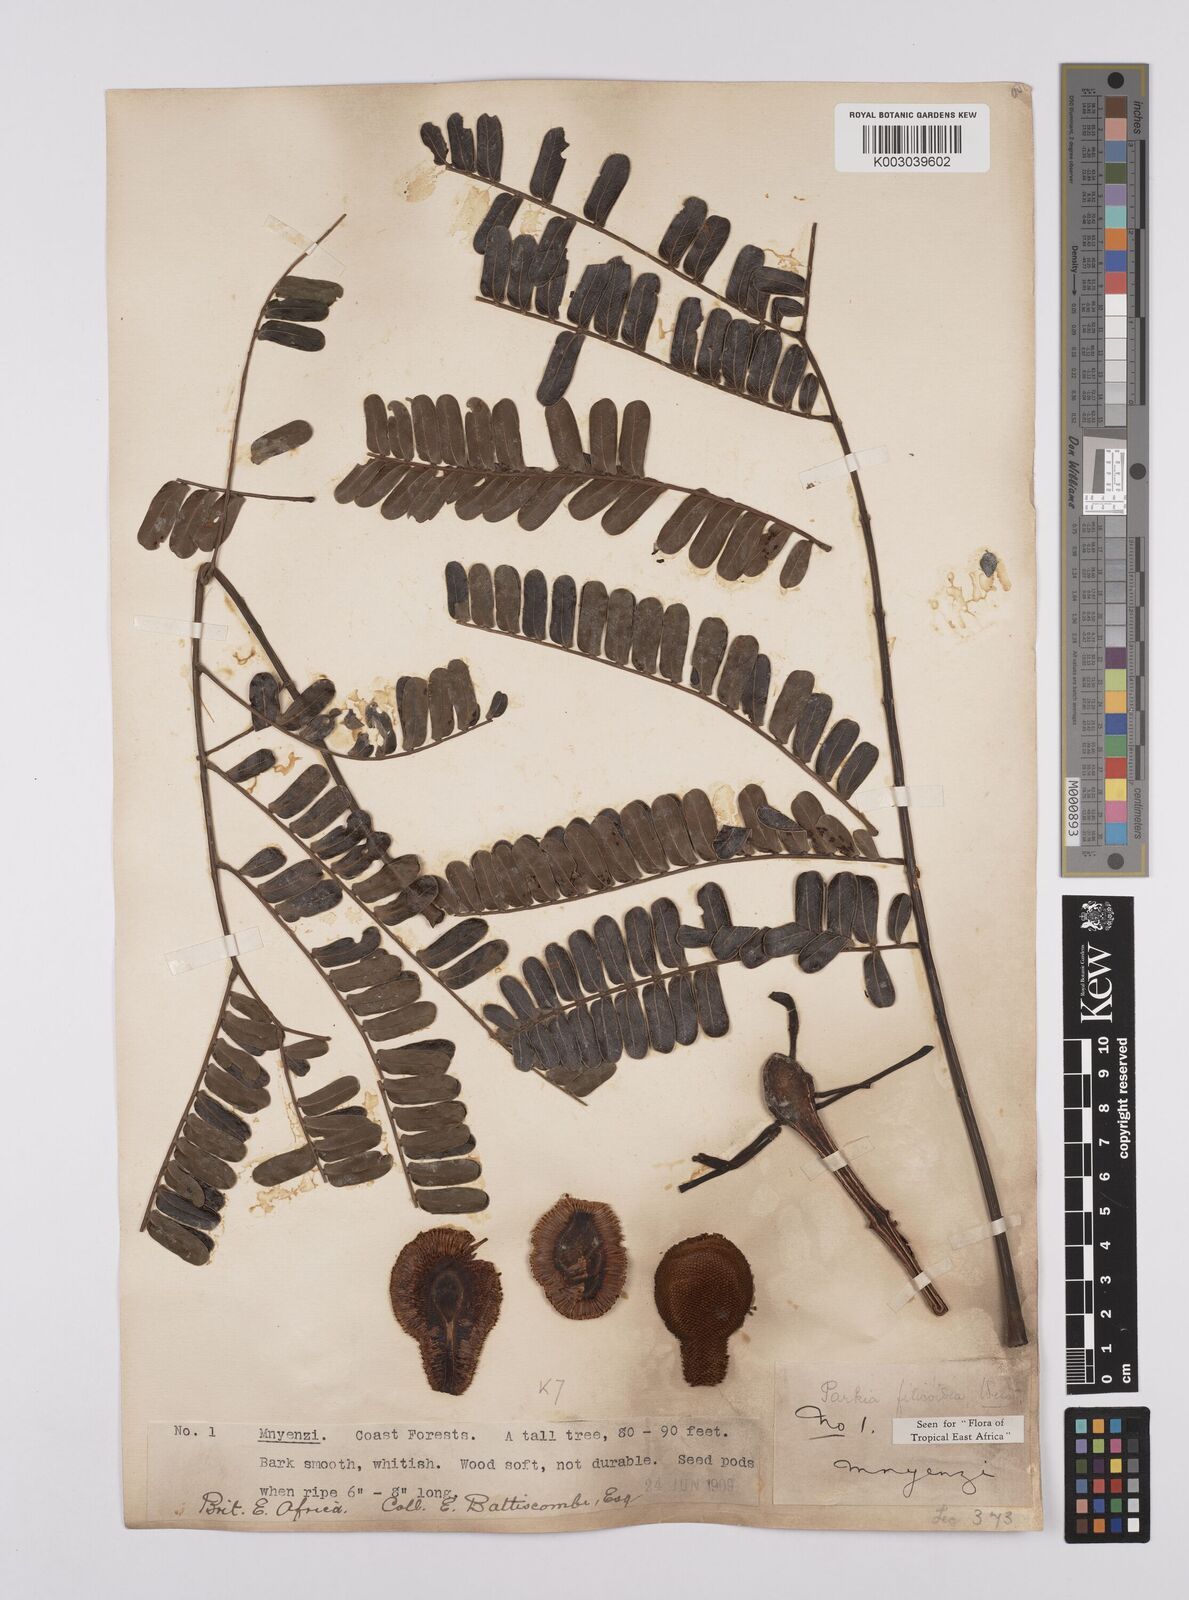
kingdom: Plantae
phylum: Tracheophyta
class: Magnoliopsida
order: Fabales
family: Fabaceae
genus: Parkia
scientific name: Parkia filicoidea
